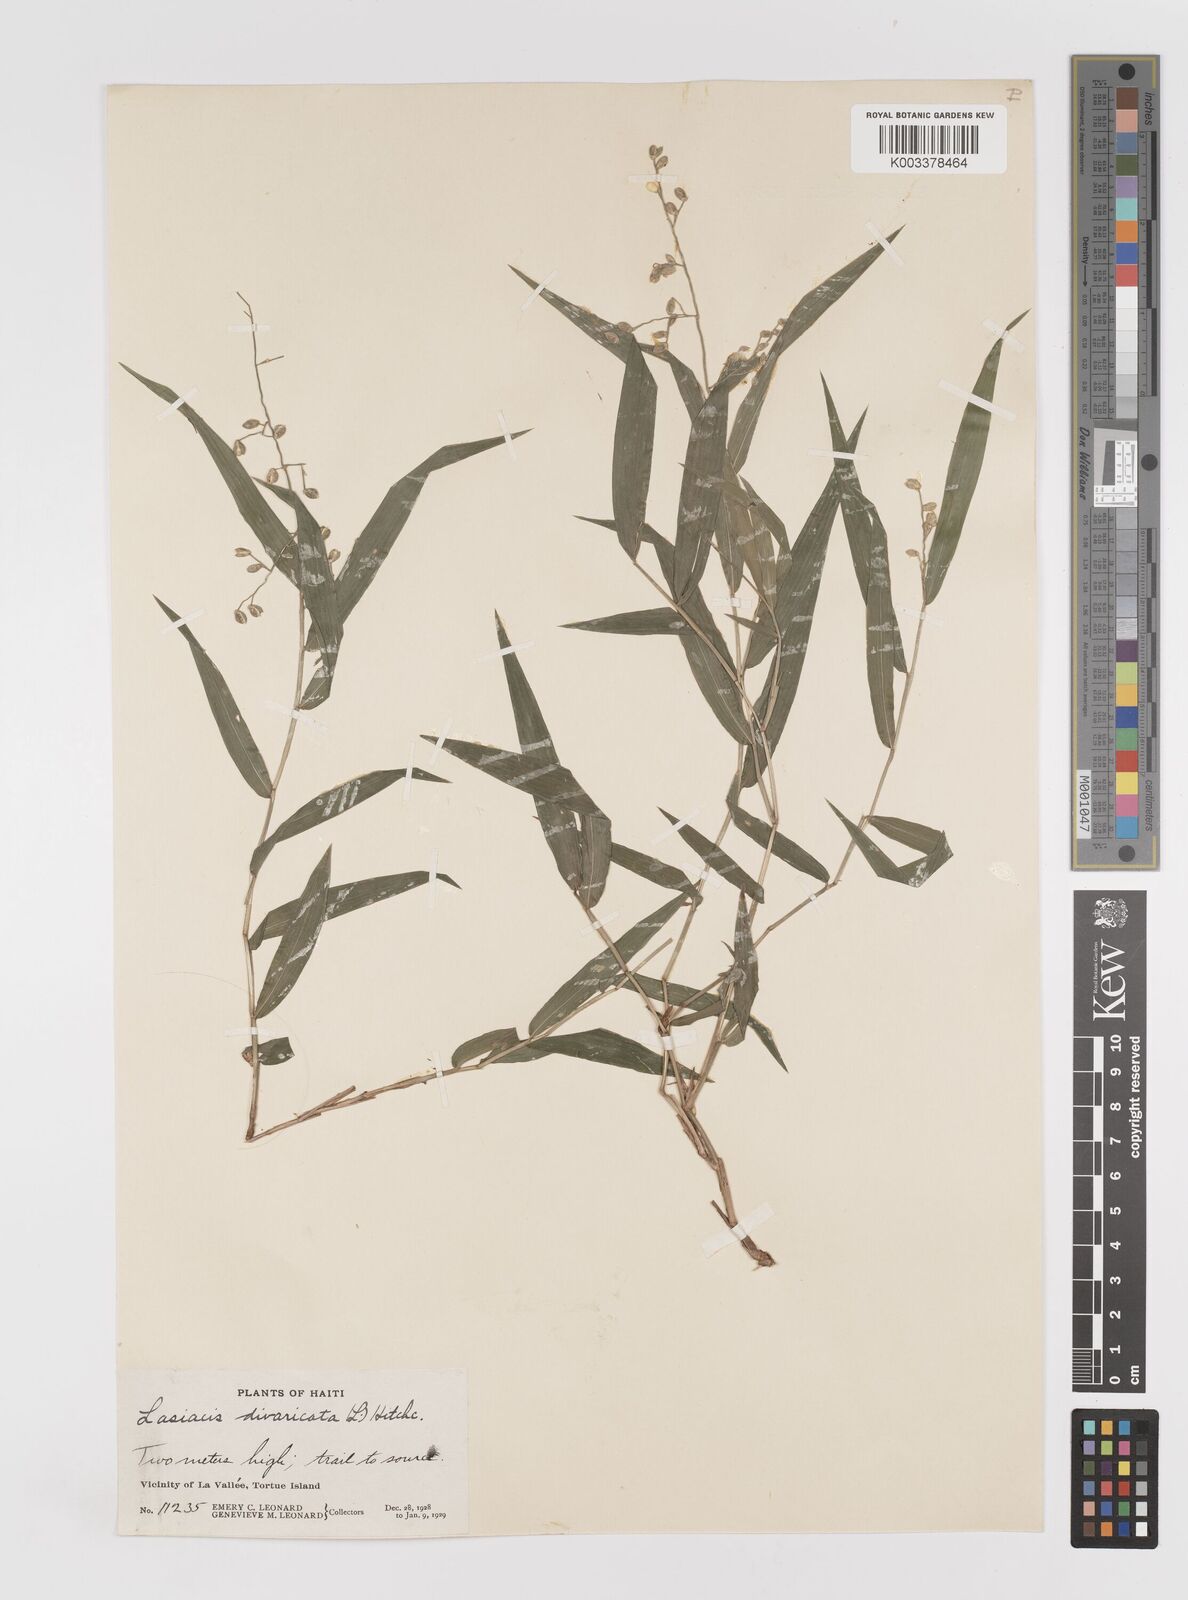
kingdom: Plantae
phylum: Tracheophyta
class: Liliopsida
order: Poales
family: Poaceae
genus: Lasiacis
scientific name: Lasiacis divaricata
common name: Smallcane
